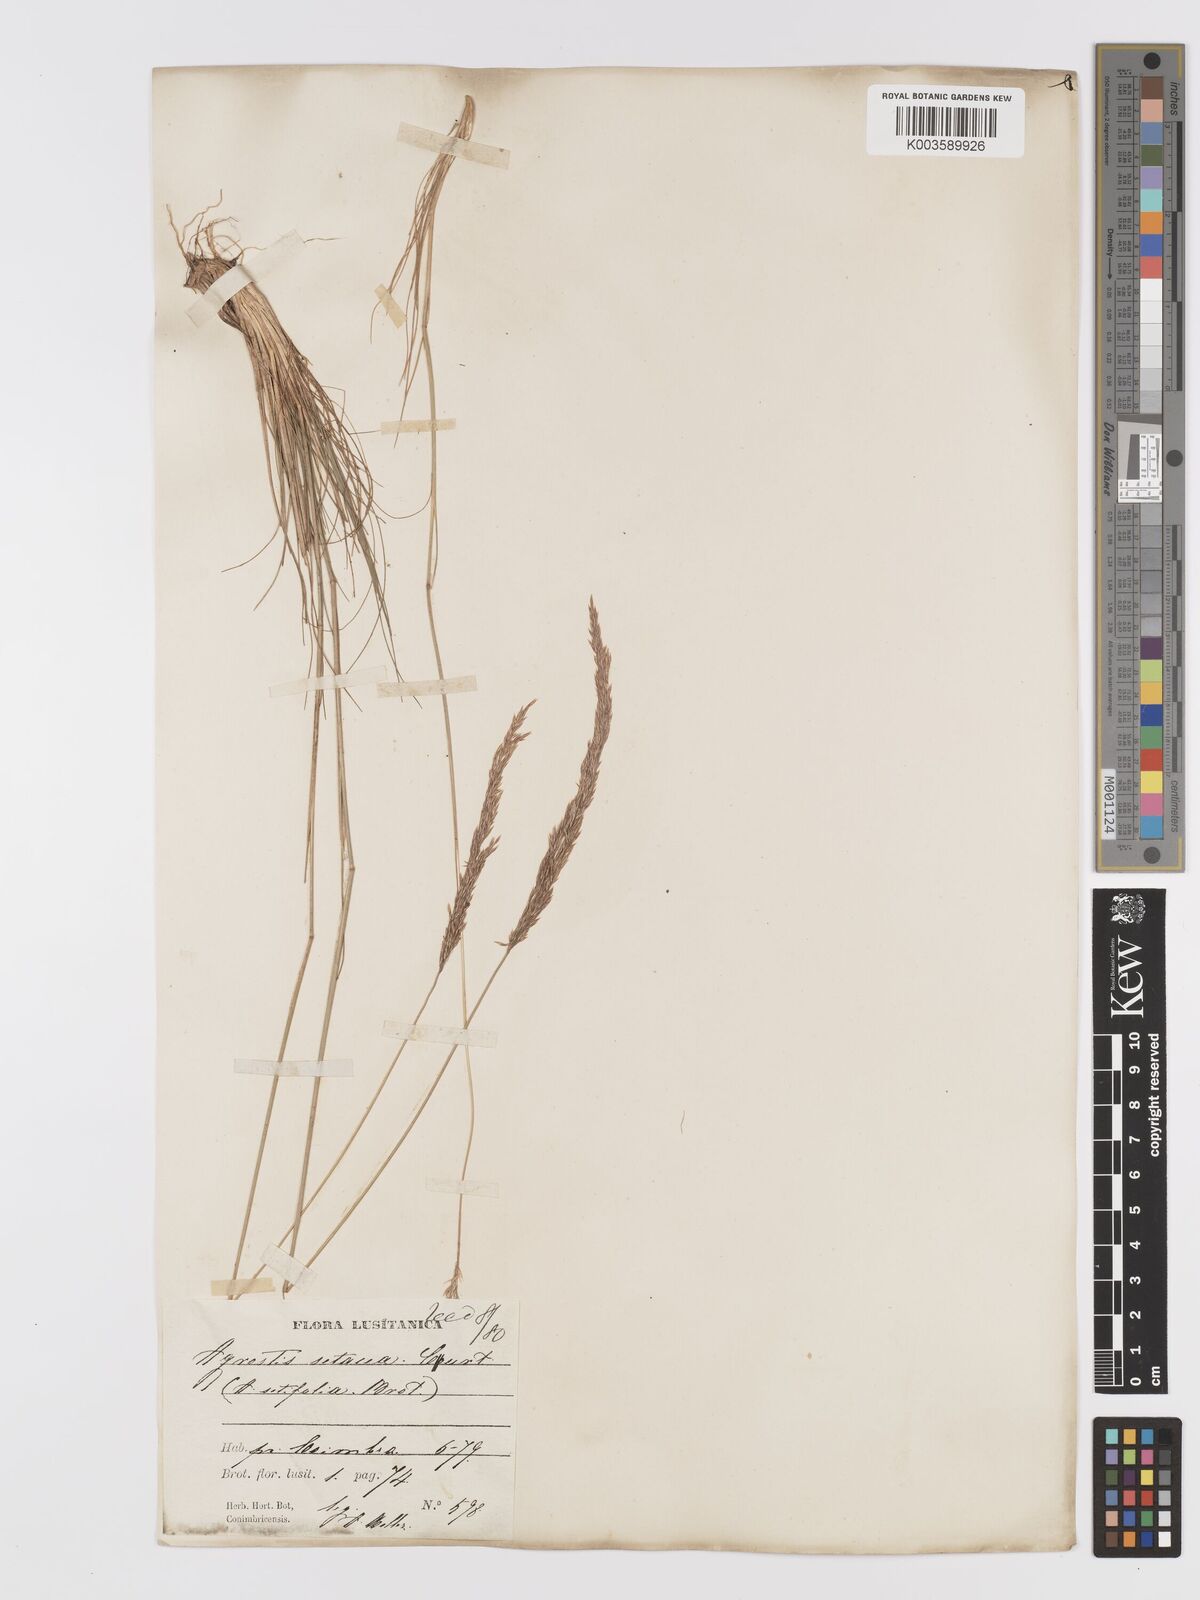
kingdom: Plantae
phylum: Tracheophyta
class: Liliopsida
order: Poales
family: Poaceae
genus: Alpagrostis
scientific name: Alpagrostis setacea
